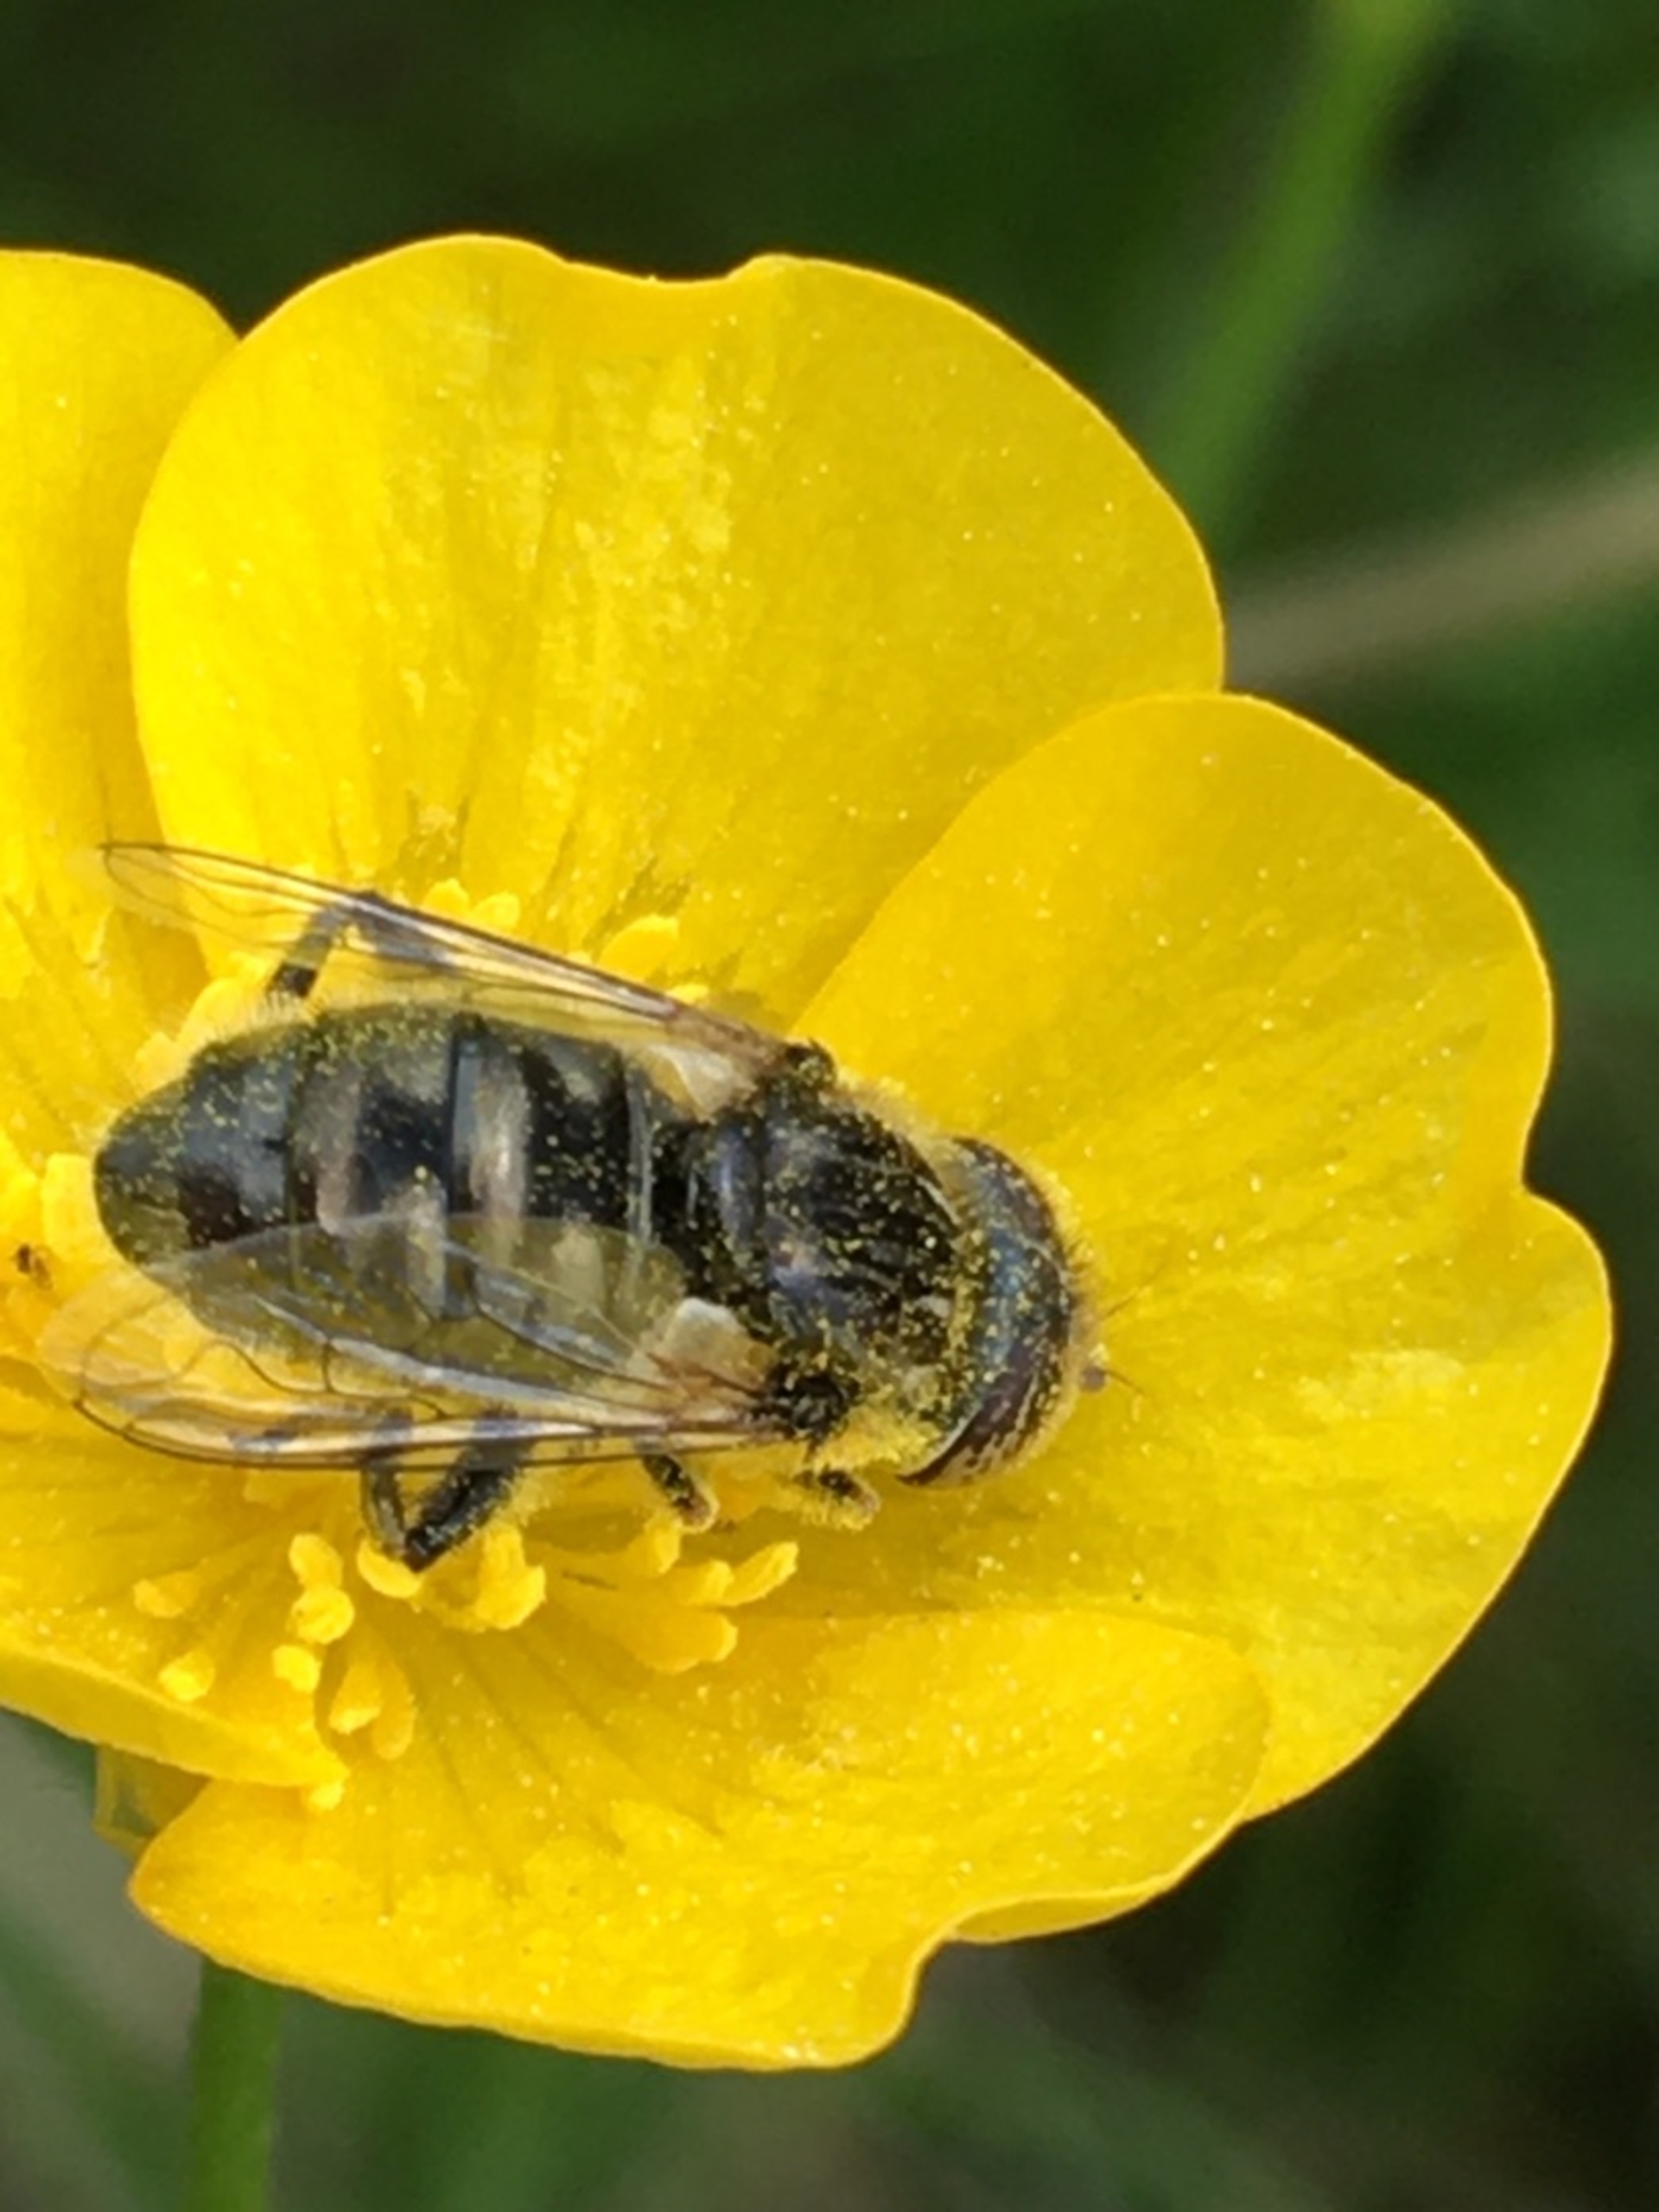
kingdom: Animalia
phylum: Arthropoda
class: Insecta
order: Diptera
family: Syrphidae
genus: Eristalinus
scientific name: Eristalinus sepulchralis
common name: Gødnings-dyndflue
